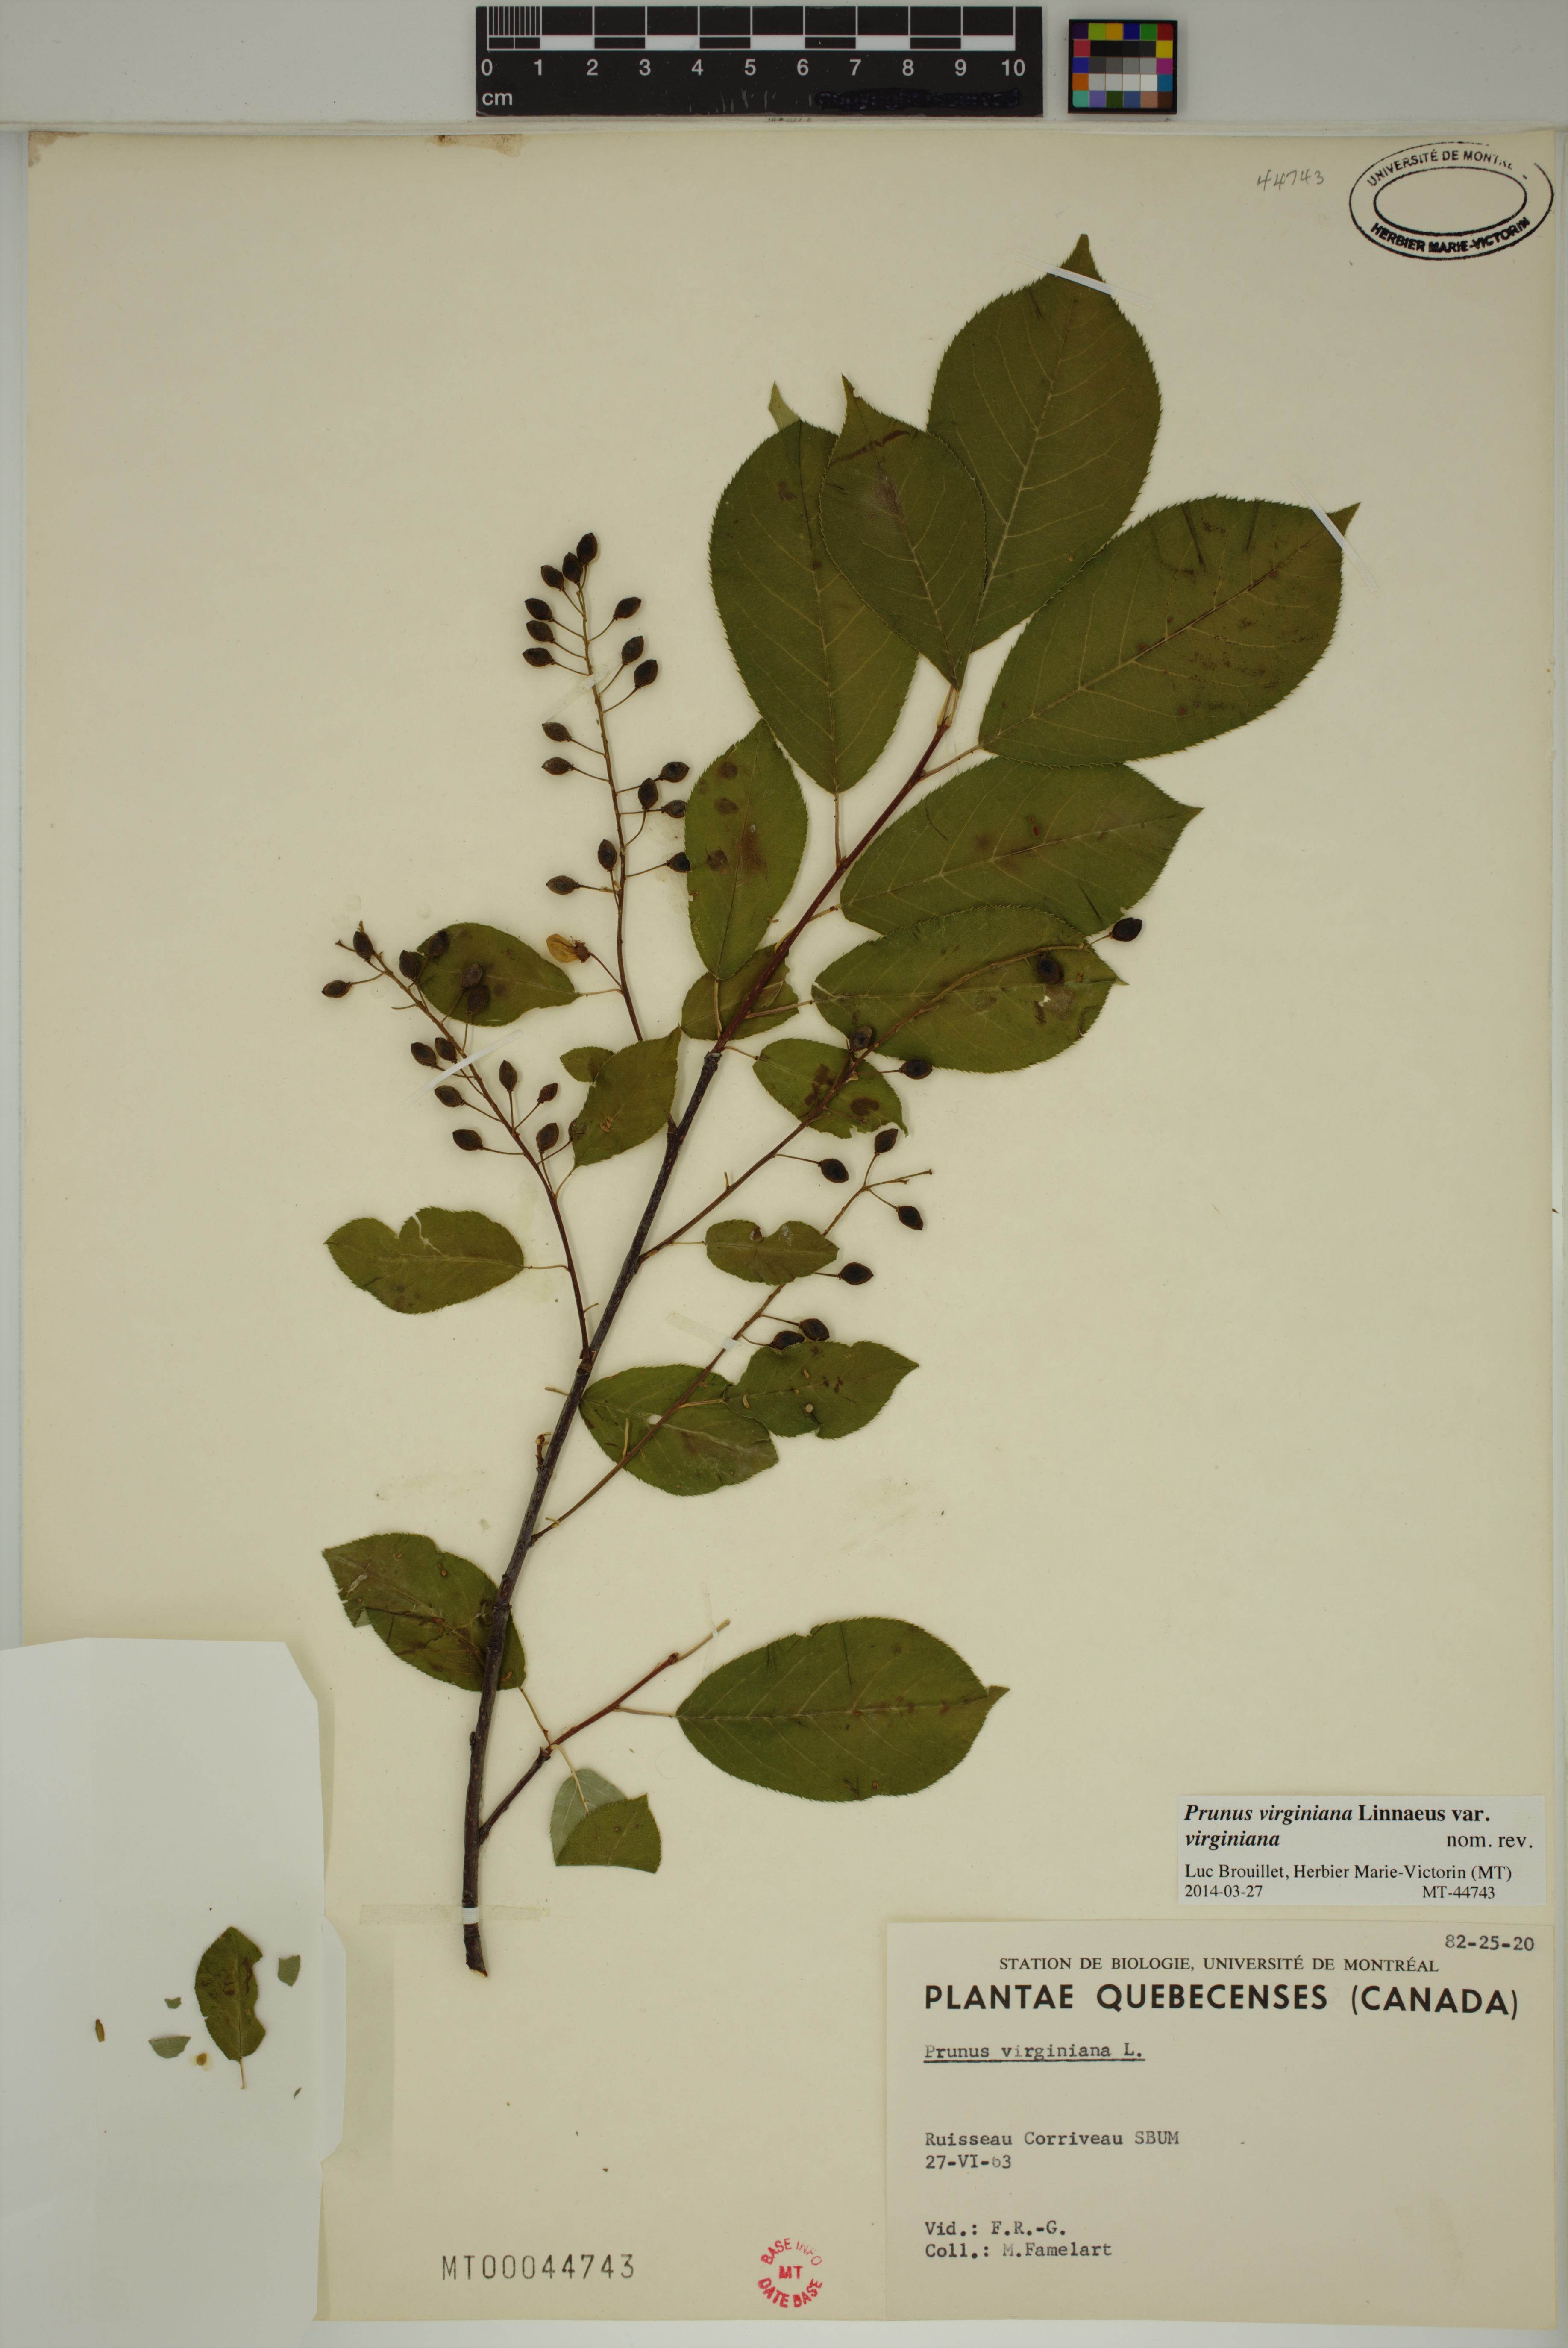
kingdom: Plantae
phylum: Tracheophyta
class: Magnoliopsida
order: Rosales
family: Rosaceae
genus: Prunus
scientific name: Prunus virginiana
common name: Chokecherry
